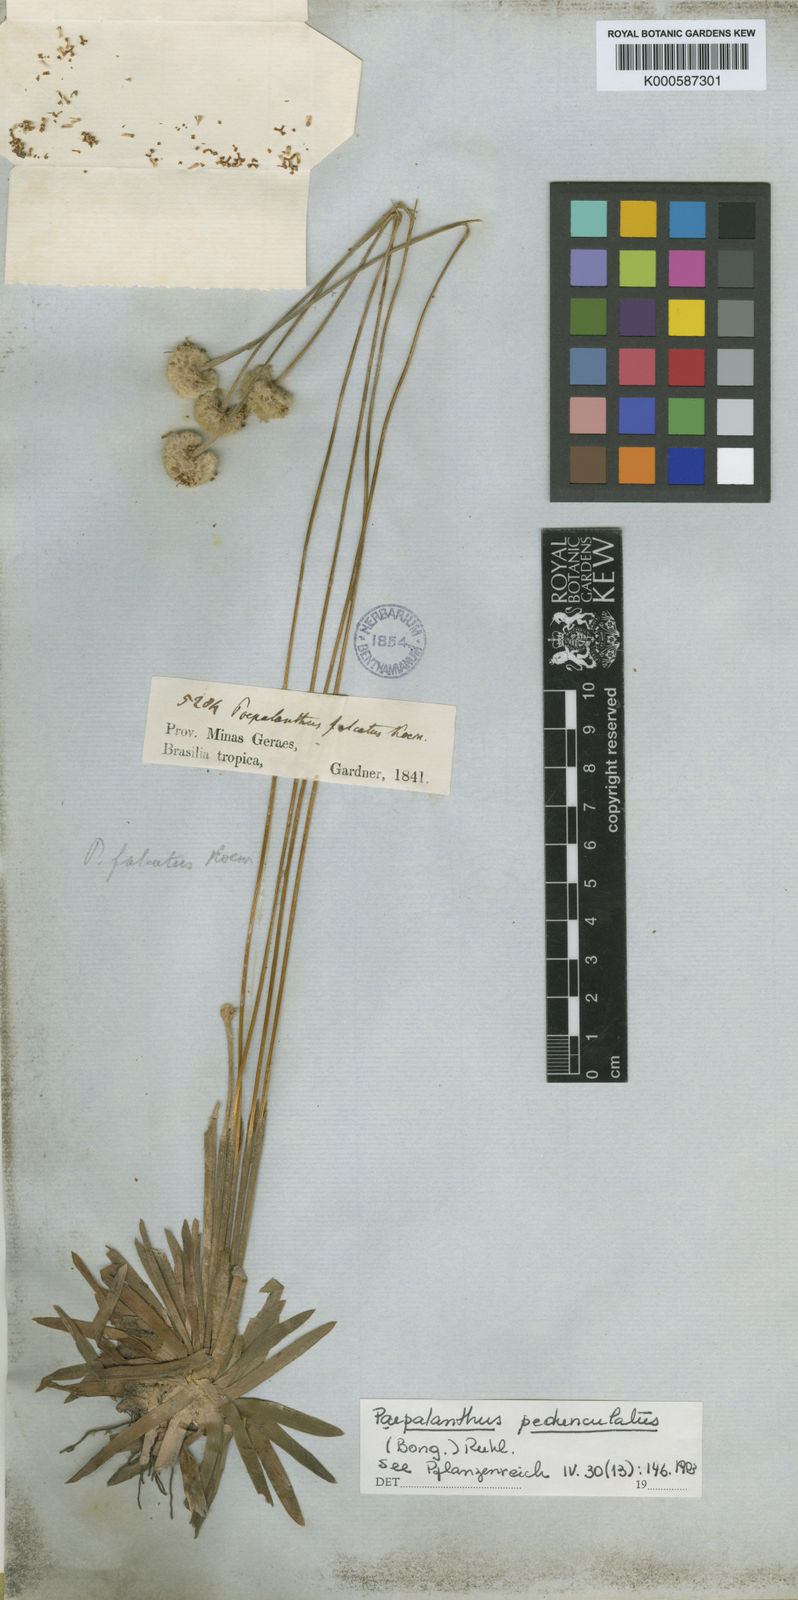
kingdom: Plantae
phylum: Tracheophyta
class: Liliopsida
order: Poales
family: Eriocaulaceae
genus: Paepalanthus
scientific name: Paepalanthus pedunculatus
